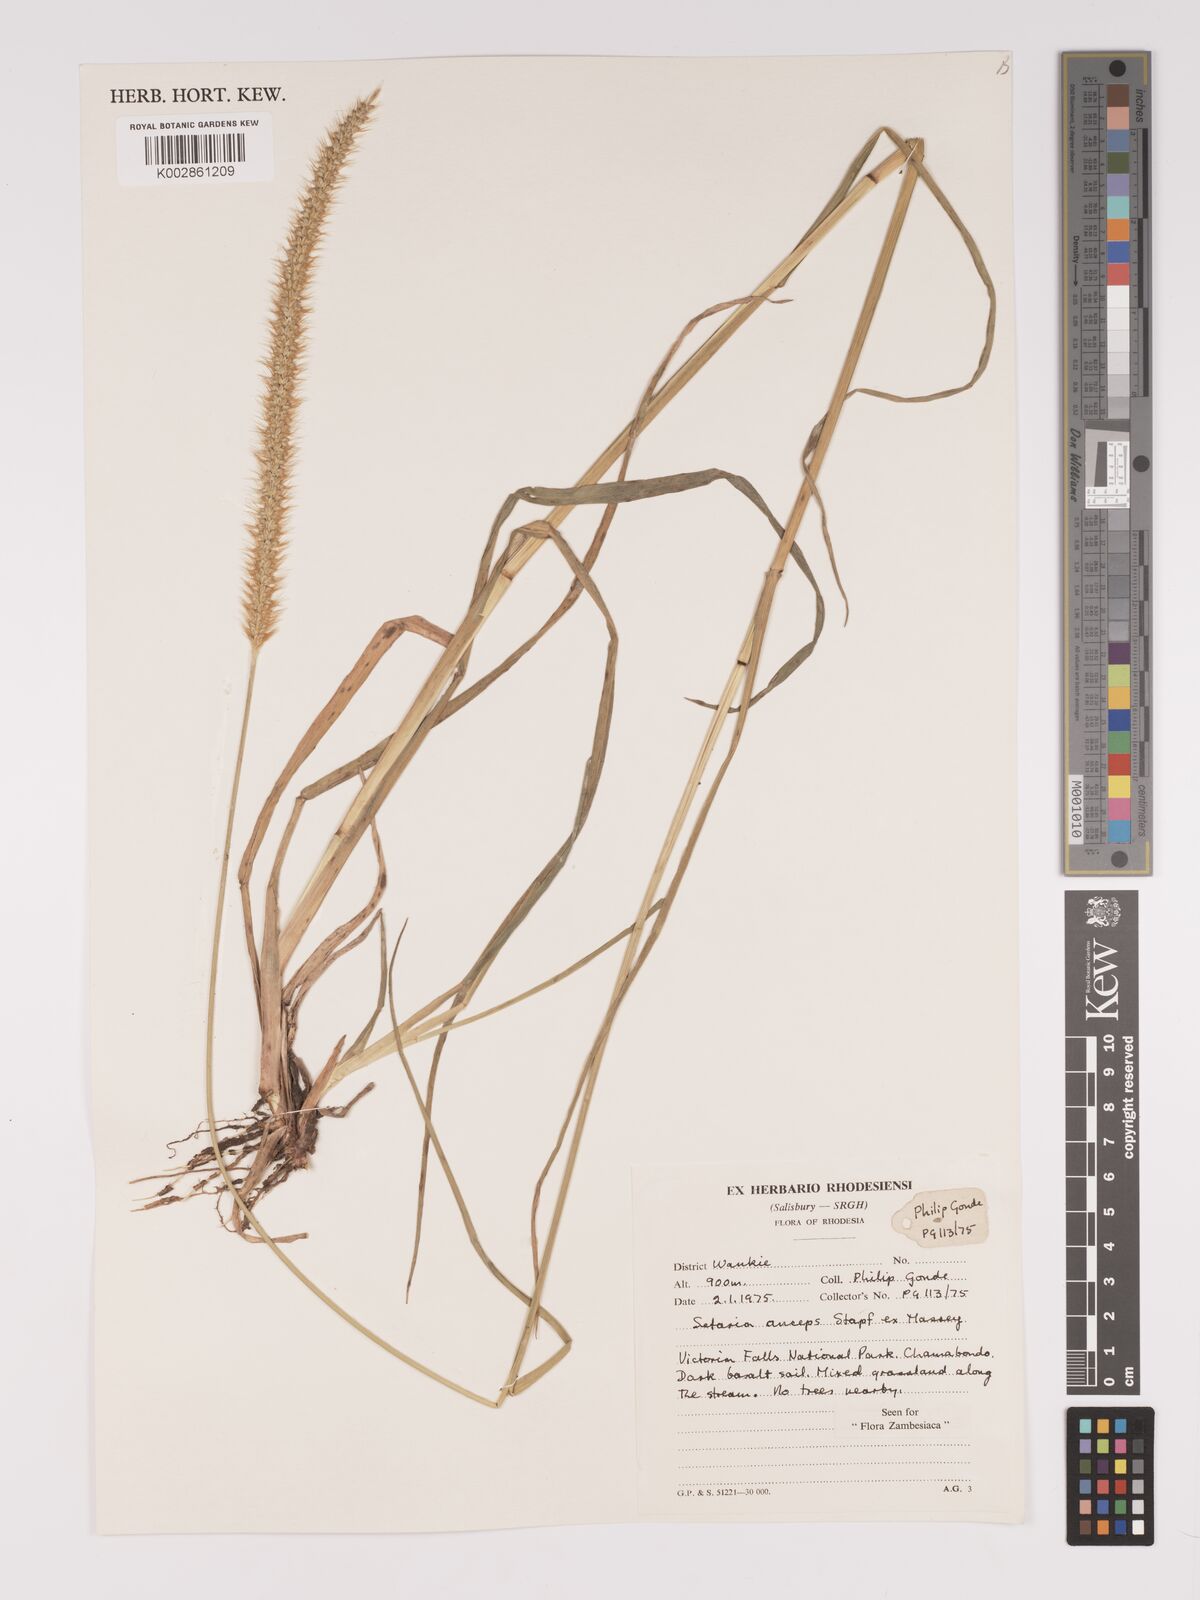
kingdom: Plantae
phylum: Tracheophyta
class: Liliopsida
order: Poales
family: Poaceae
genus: Setaria
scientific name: Setaria sphacelata
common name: African bristlegrass
